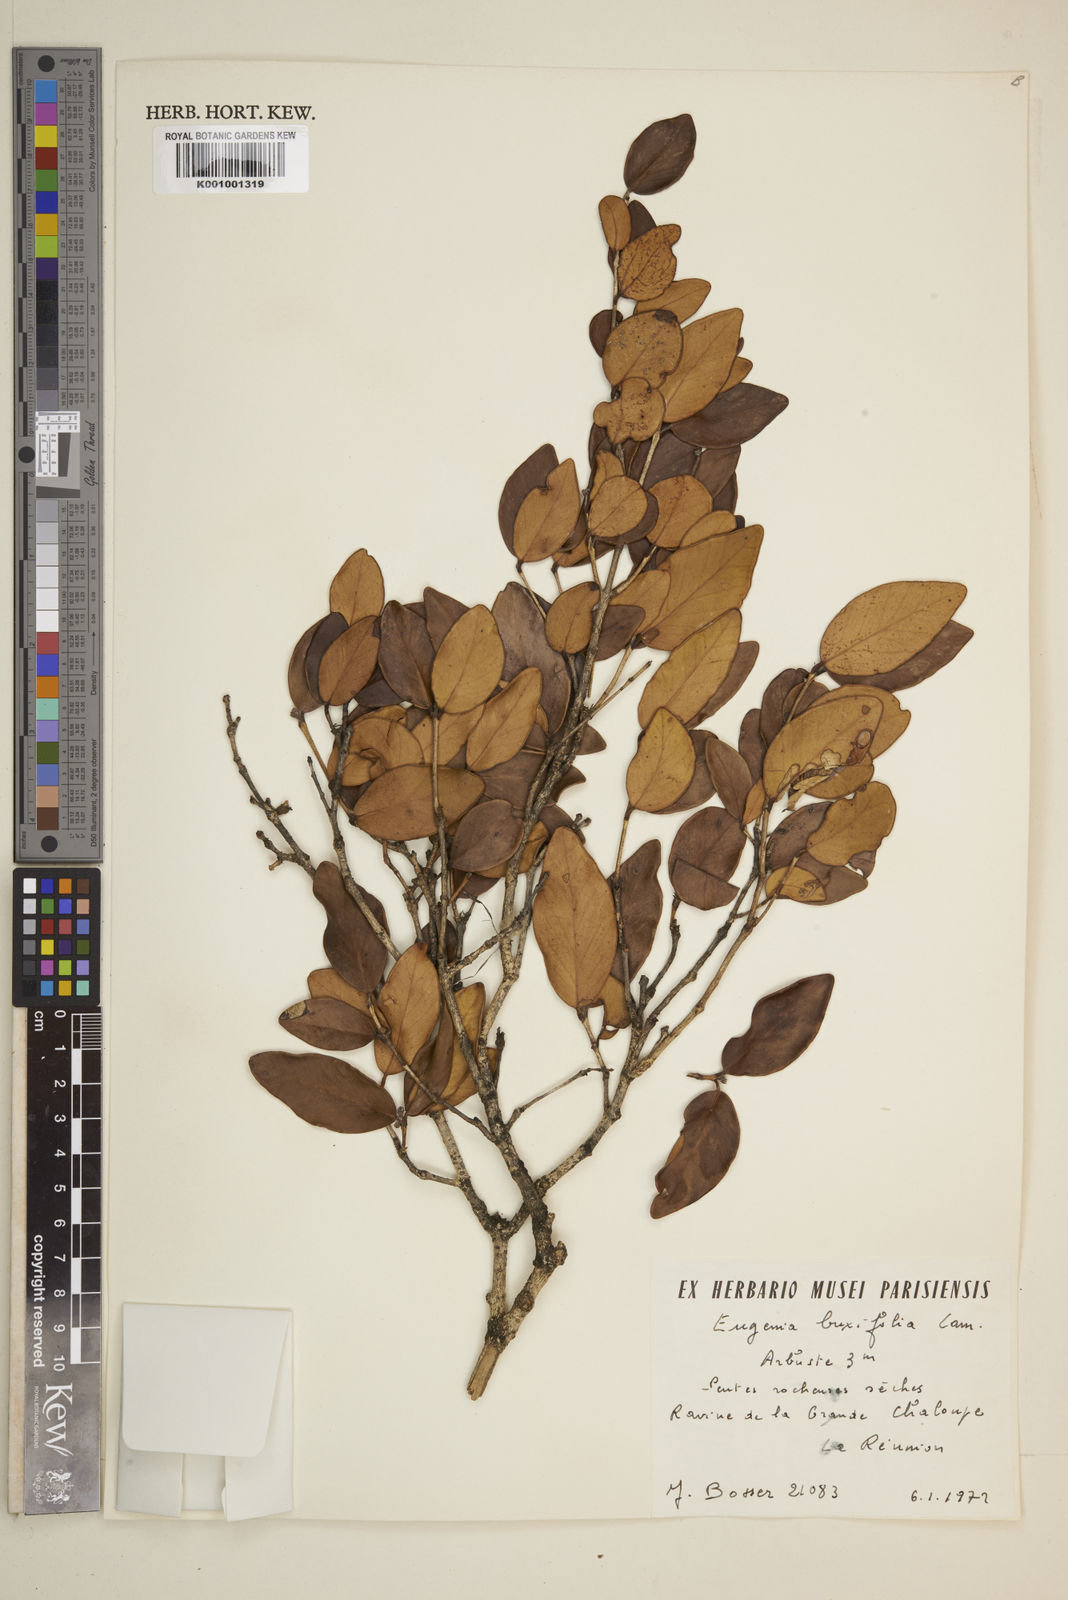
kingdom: Plantae
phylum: Tracheophyta
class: Magnoliopsida
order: Myrtales
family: Myrtaceae
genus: Eugenia
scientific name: Eugenia buxifolia
